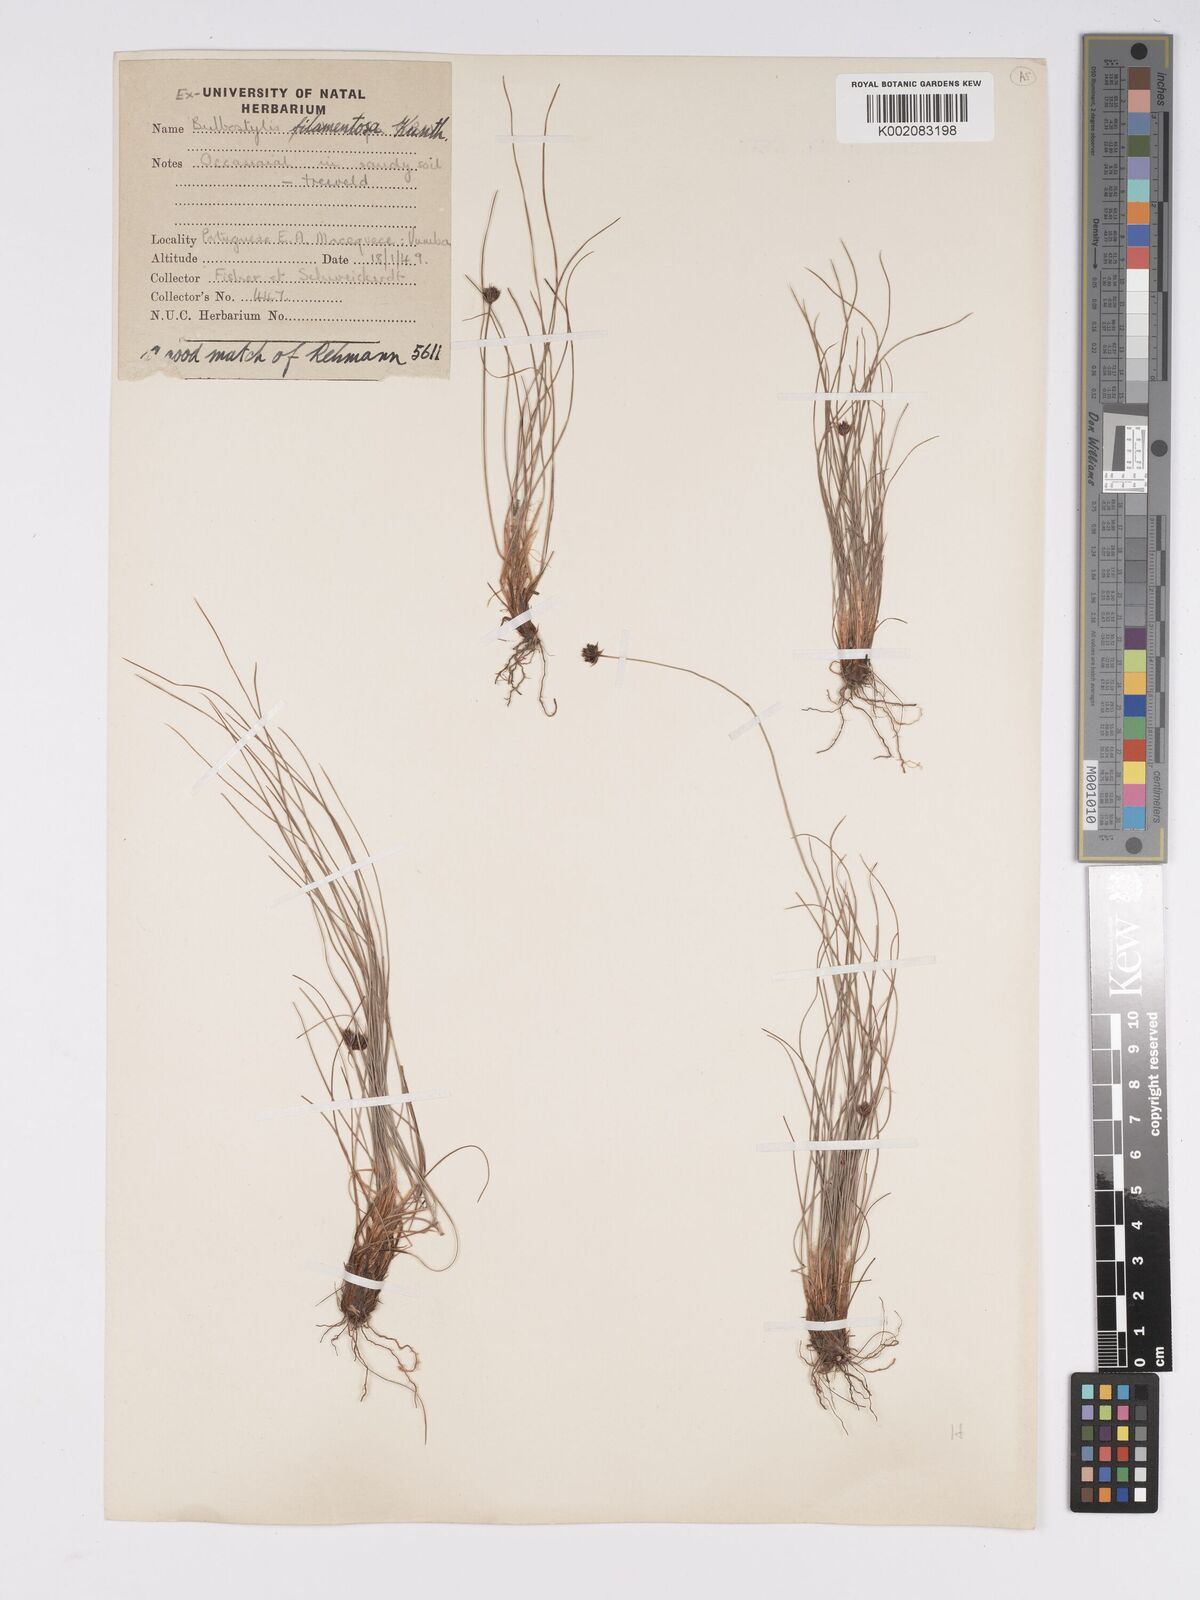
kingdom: Plantae
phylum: Tracheophyta
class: Liliopsida
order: Poales
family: Cyperaceae
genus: Bulbostylis
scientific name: Bulbostylis filamentosa
